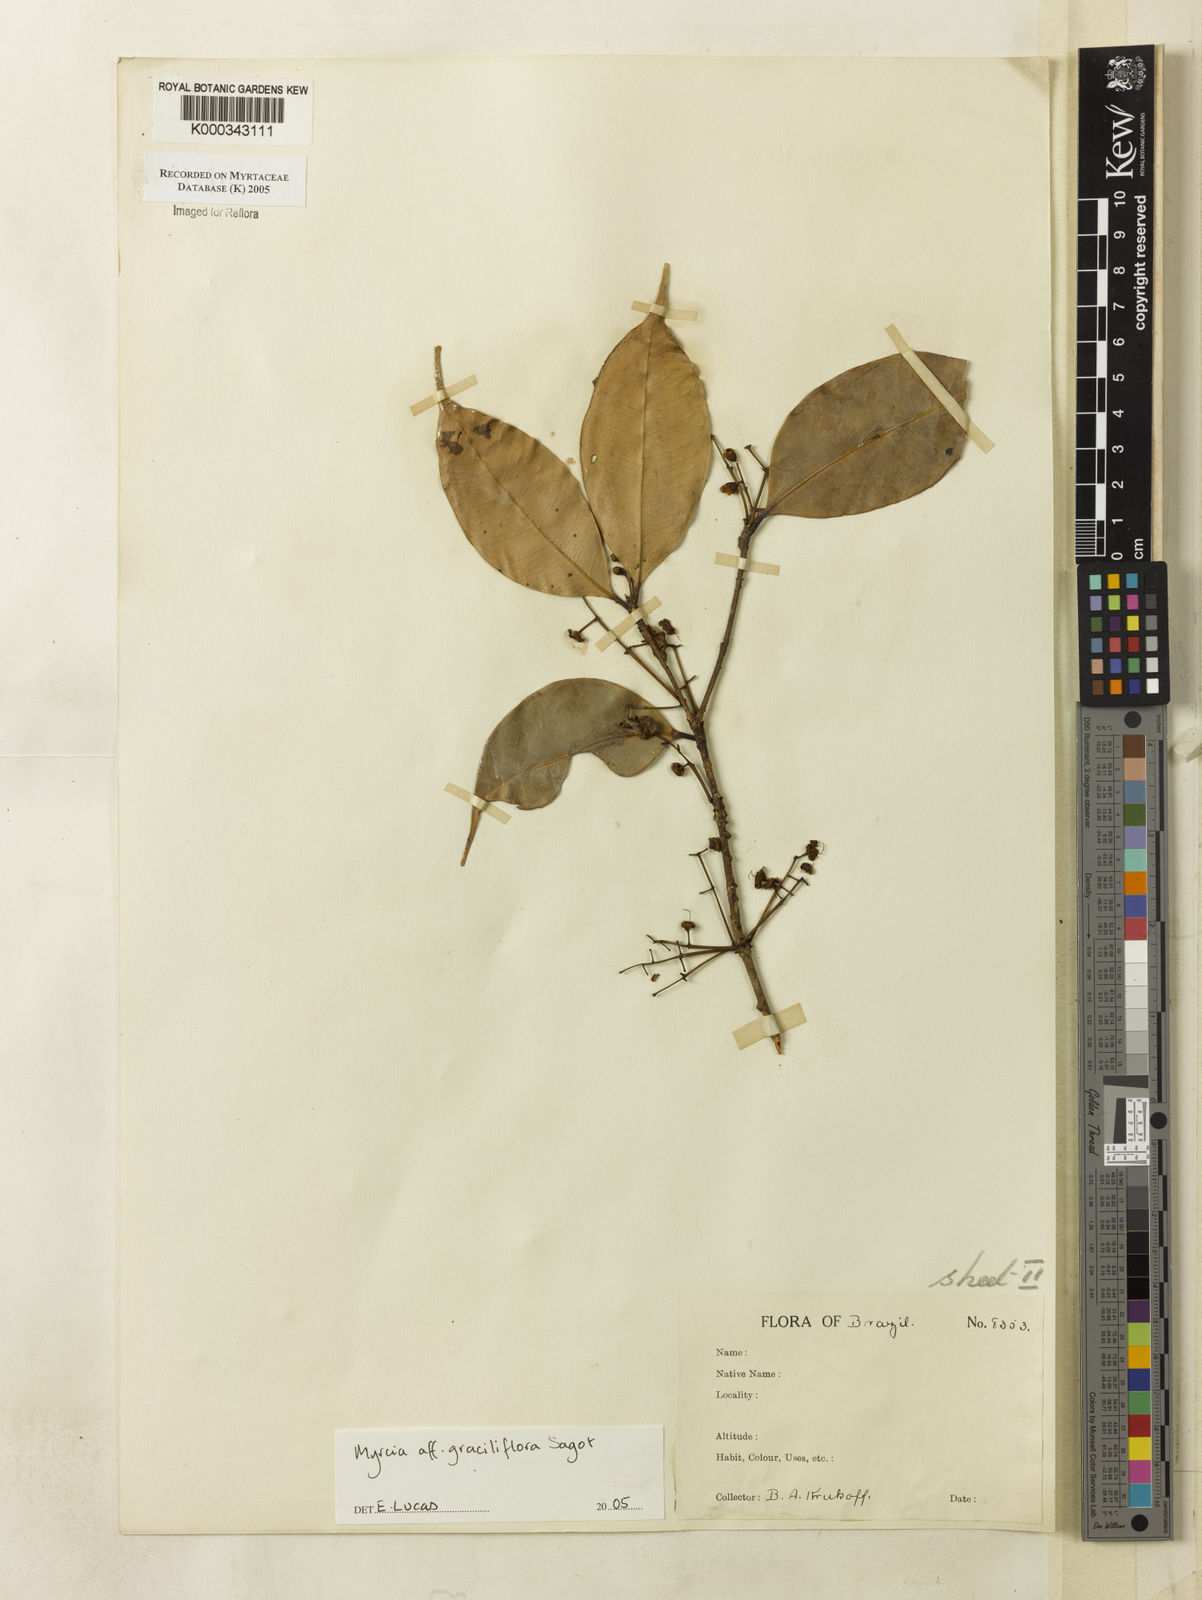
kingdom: Plantae
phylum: Tracheophyta
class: Magnoliopsida
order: Myrtales
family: Myrtaceae
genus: Myrcia
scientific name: Myrcia graciliflora
